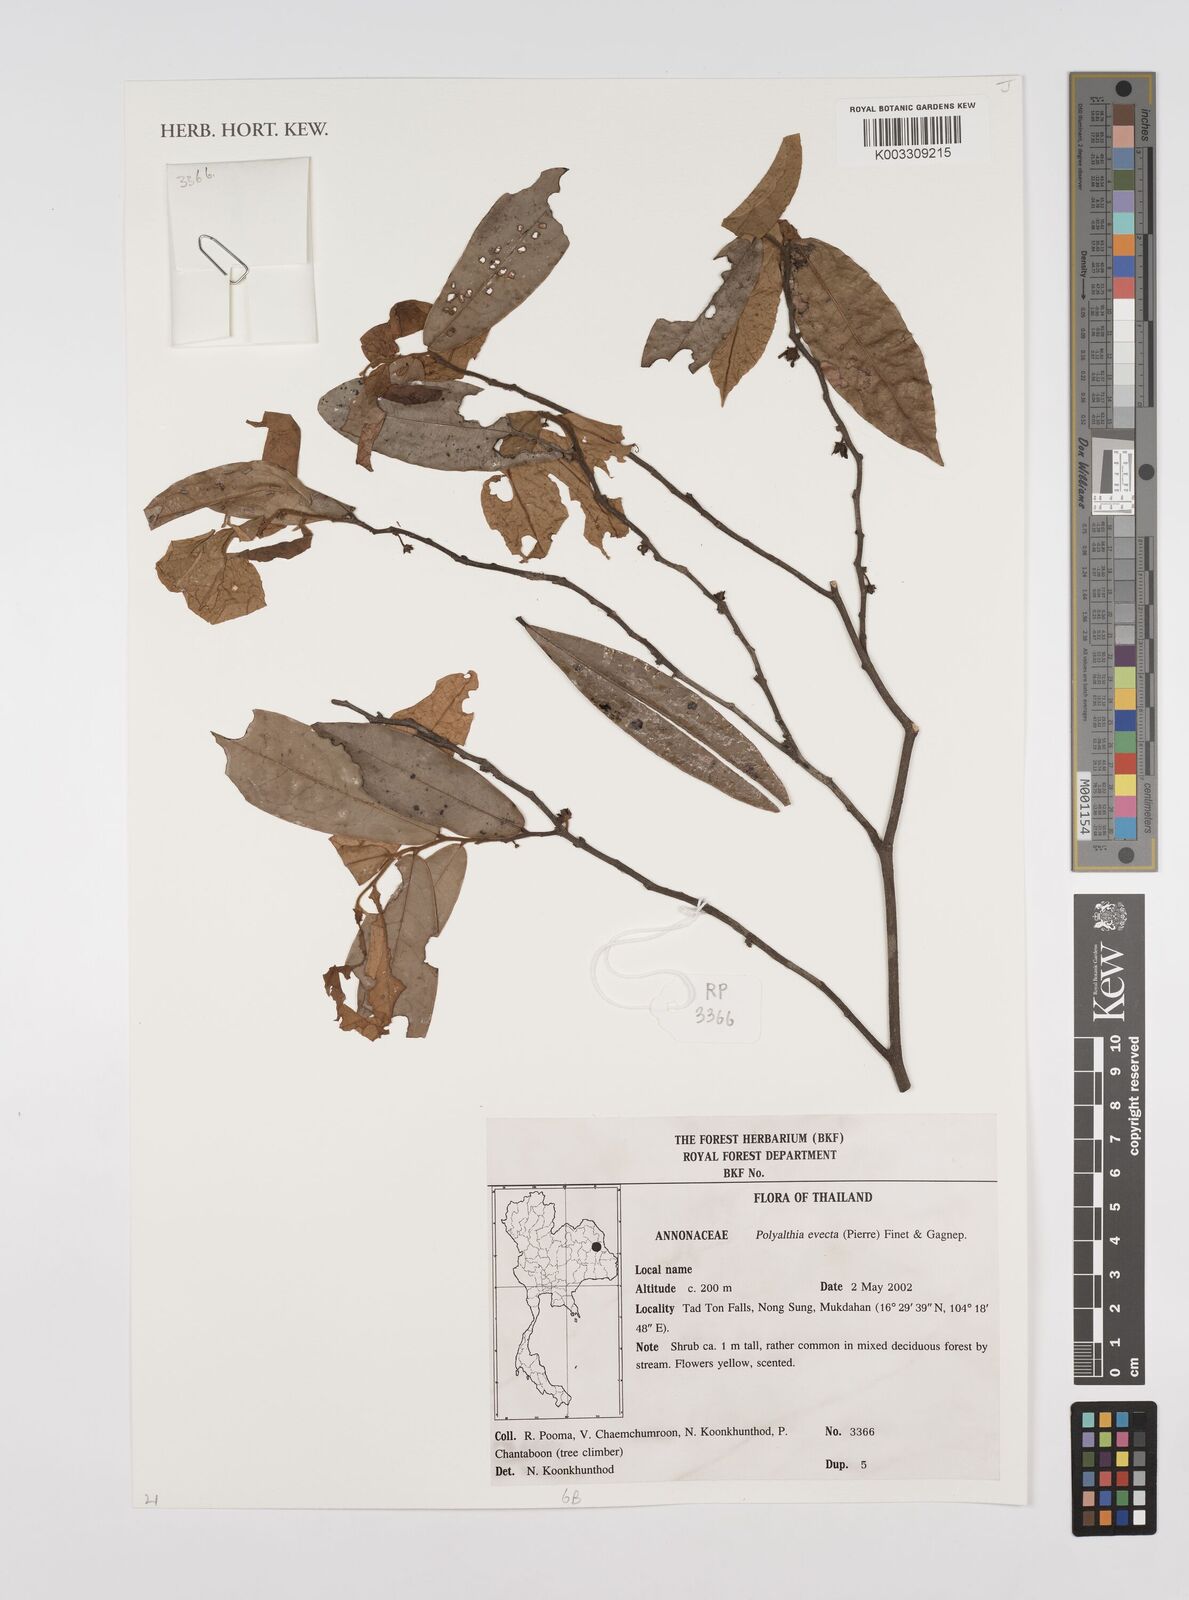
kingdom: Plantae
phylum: Tracheophyta
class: Magnoliopsida
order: Magnoliales
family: Annonaceae
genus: Polyalthia
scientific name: Polyalthia evecta
